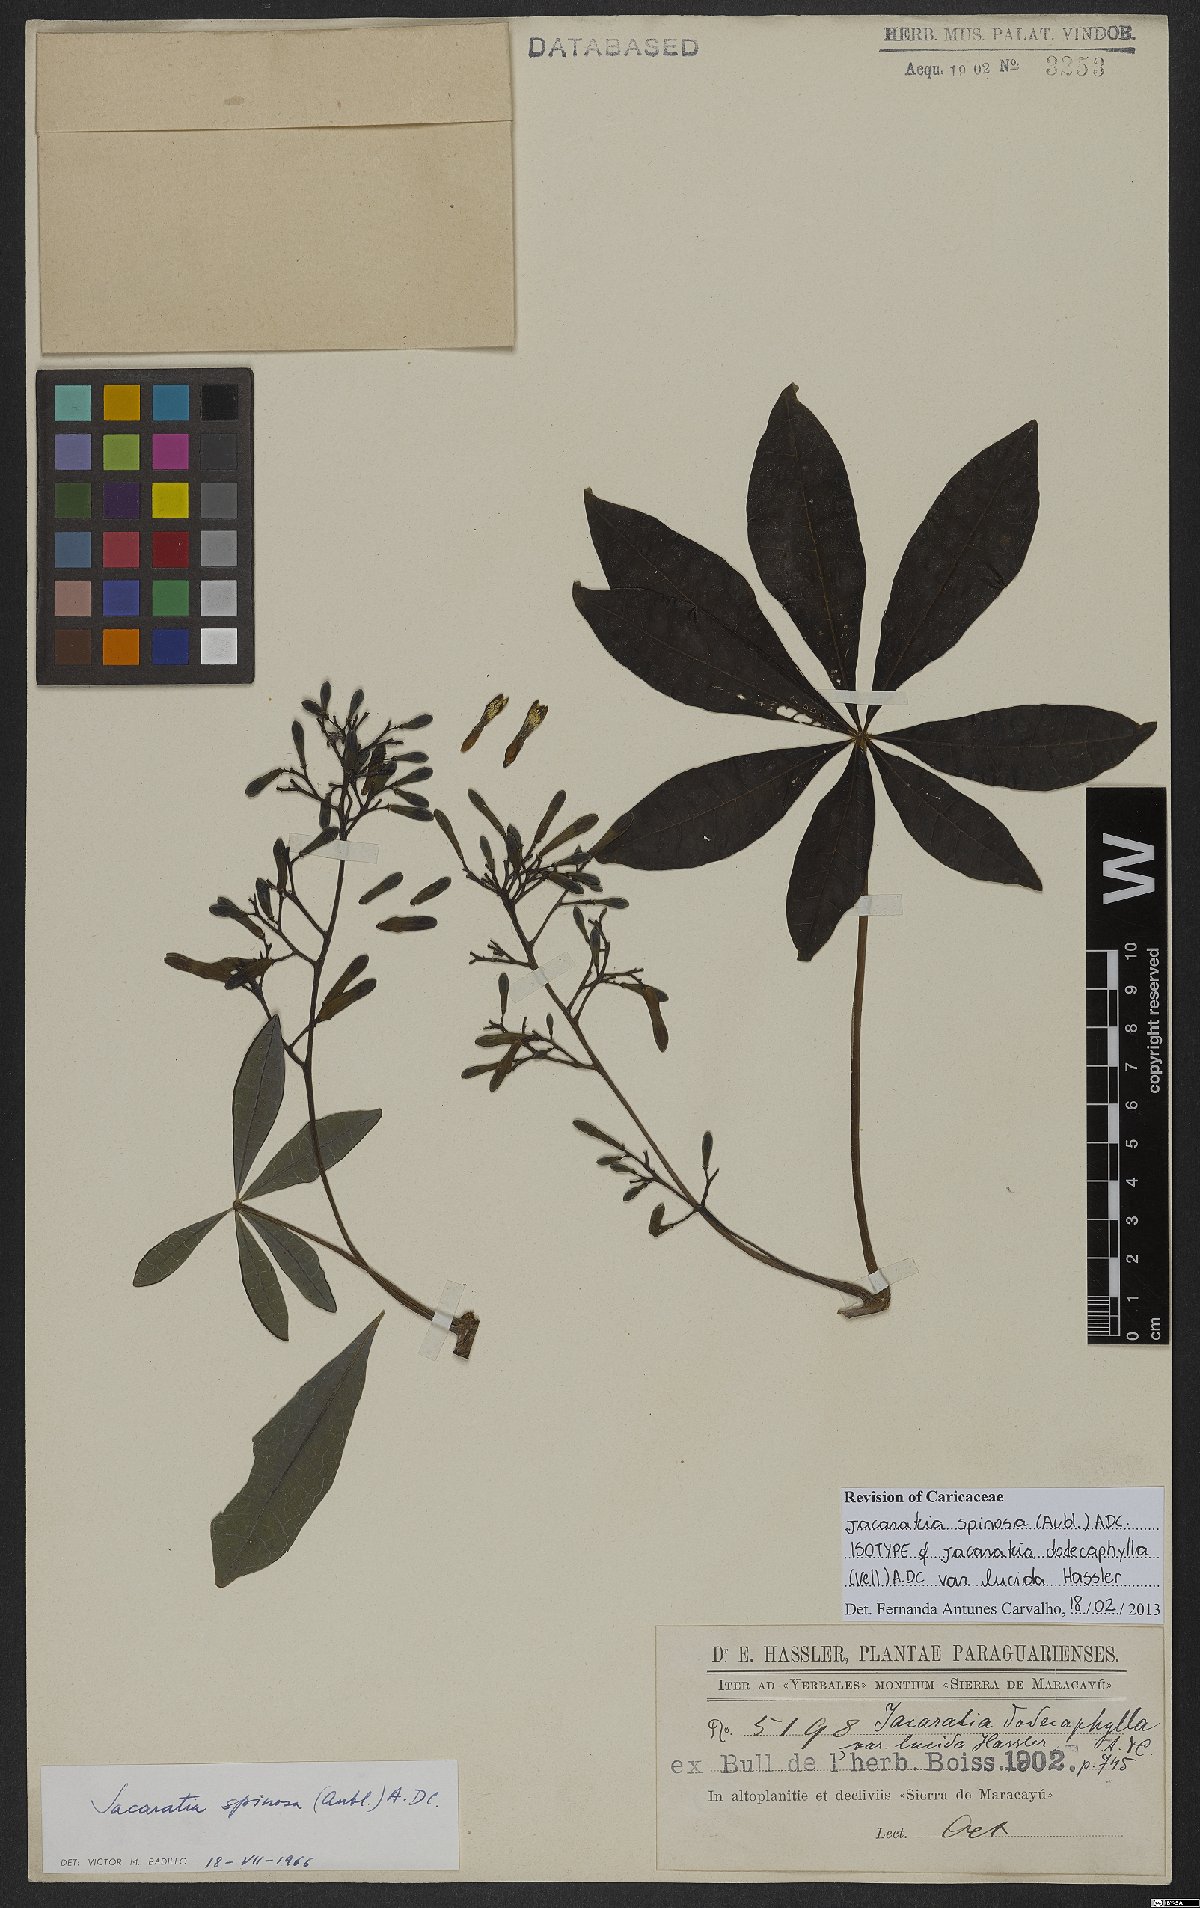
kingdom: Plantae
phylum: Tracheophyta
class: Magnoliopsida
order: Brassicales
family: Caricaceae
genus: Jacaratia
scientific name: Jacaratia spinosa
